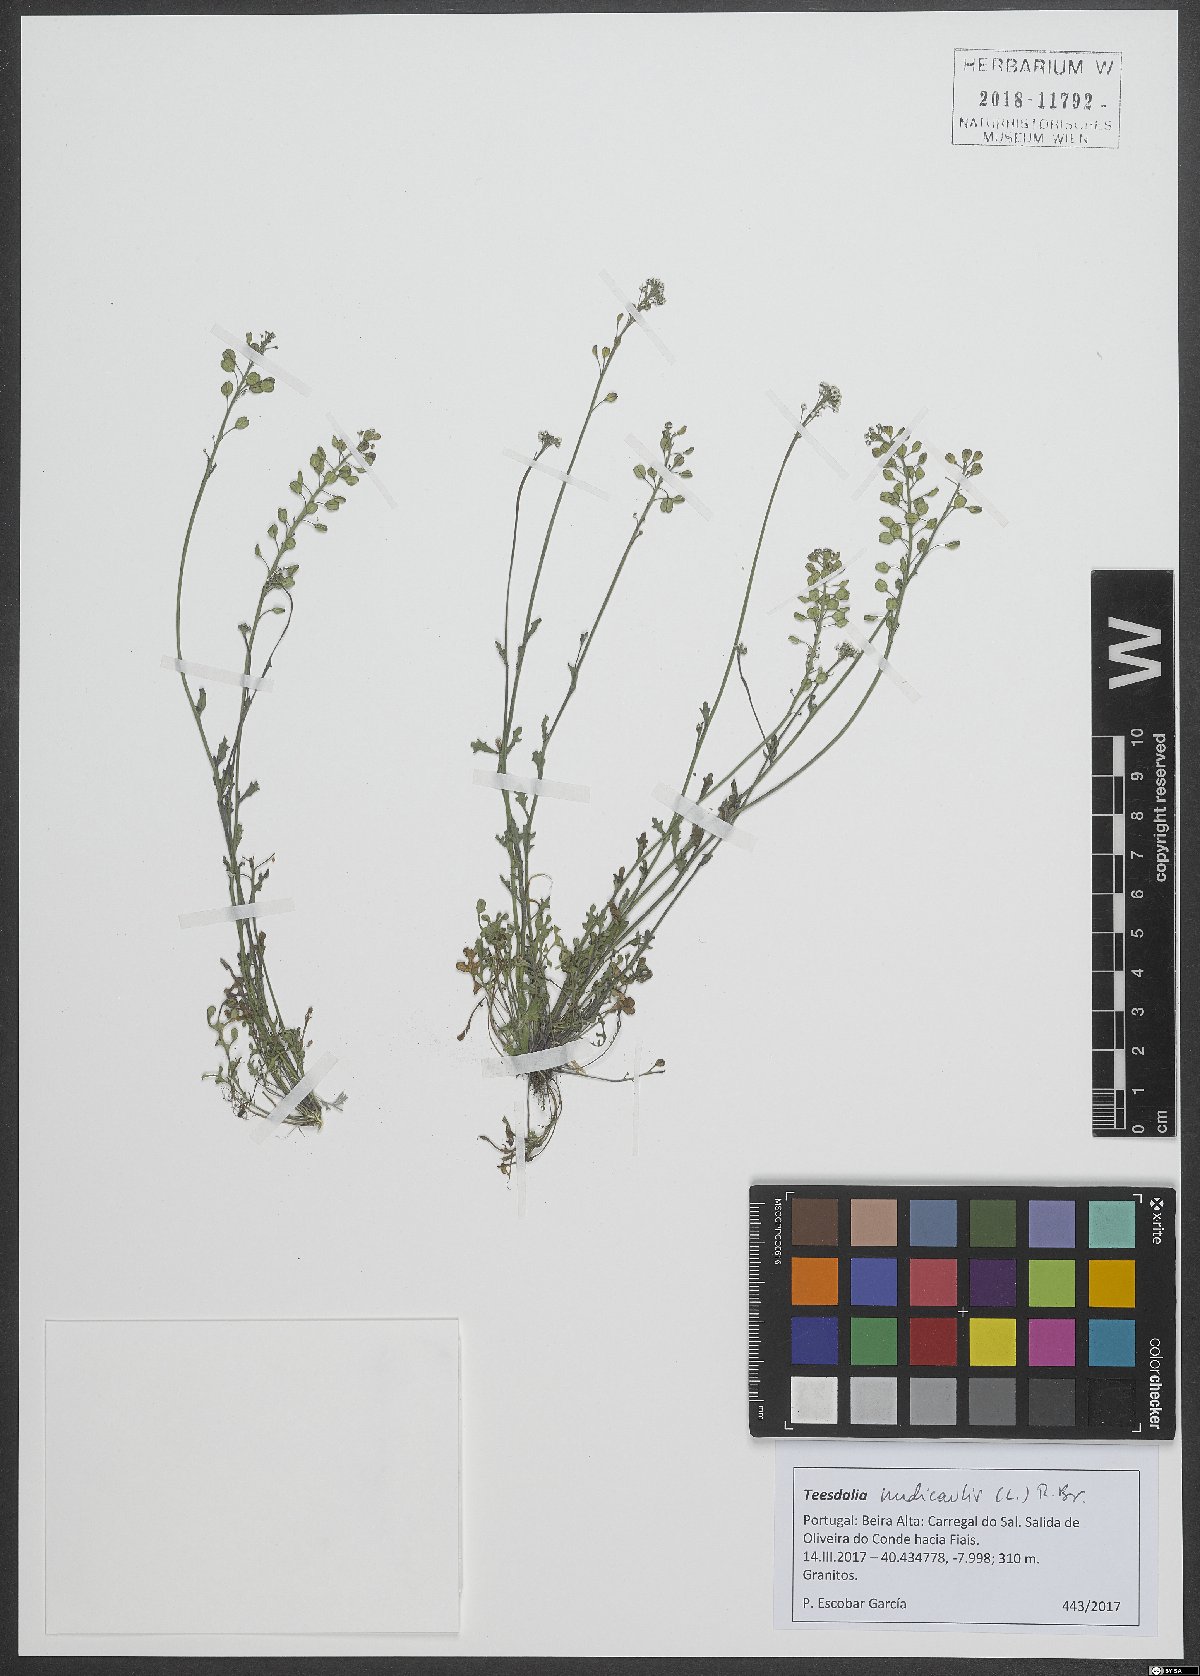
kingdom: Plantae
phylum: Tracheophyta
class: Magnoliopsida
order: Brassicales
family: Brassicaceae
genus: Teesdalia
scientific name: Teesdalia nudicaulis
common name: Shepherd's cress
